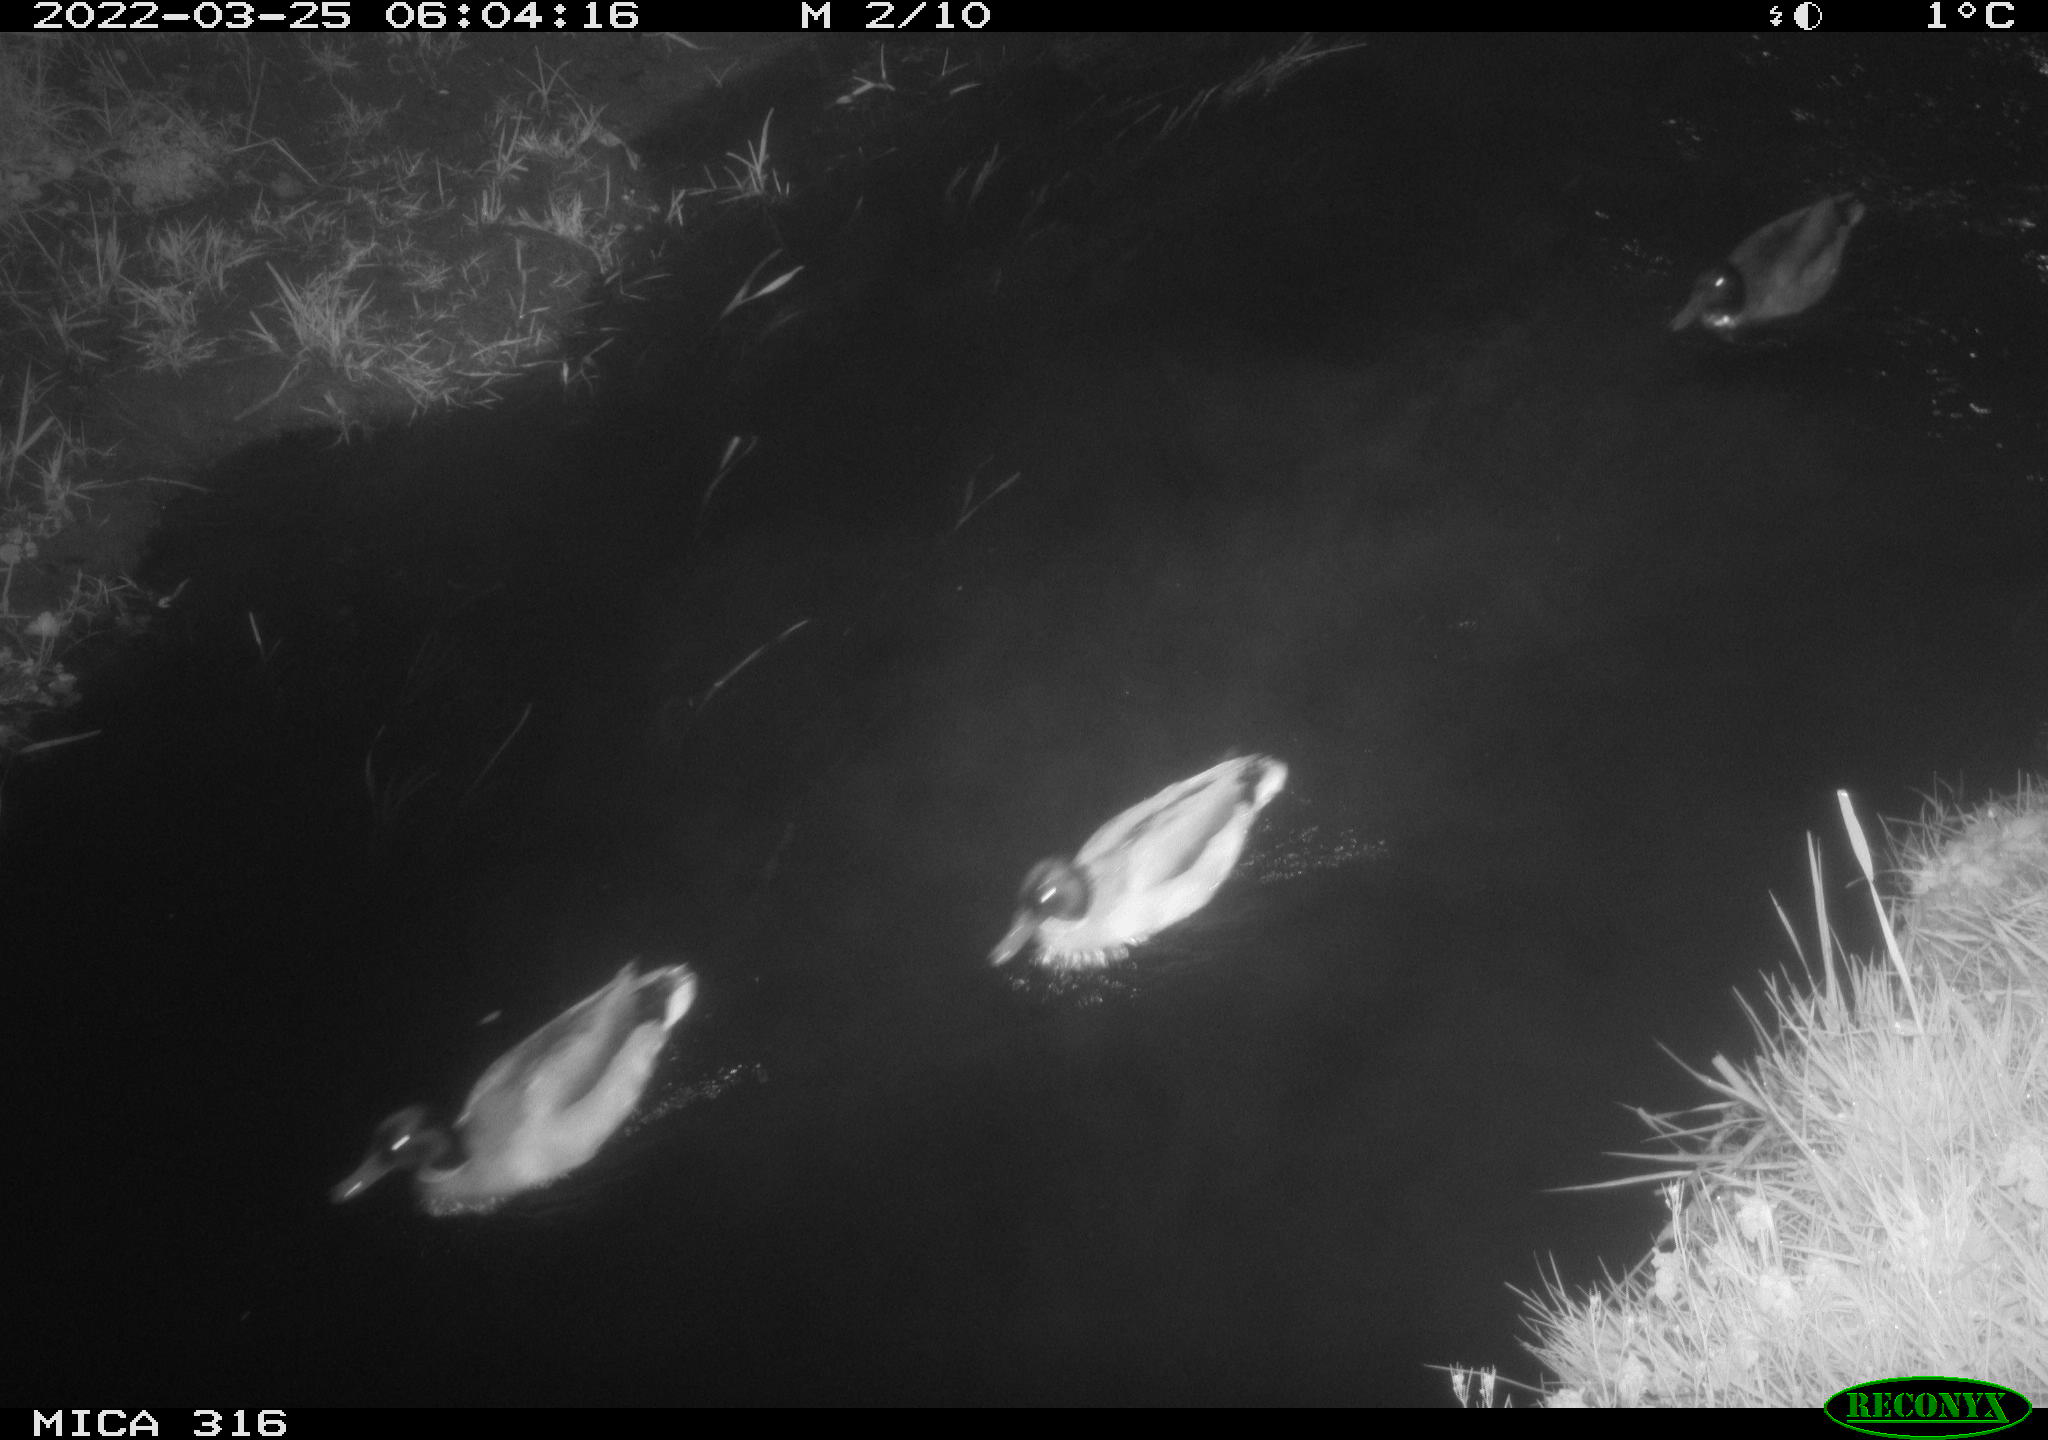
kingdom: Animalia
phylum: Chordata
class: Aves
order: Anseriformes
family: Anatidae
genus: Anas
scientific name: Anas platyrhynchos
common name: Mallard
